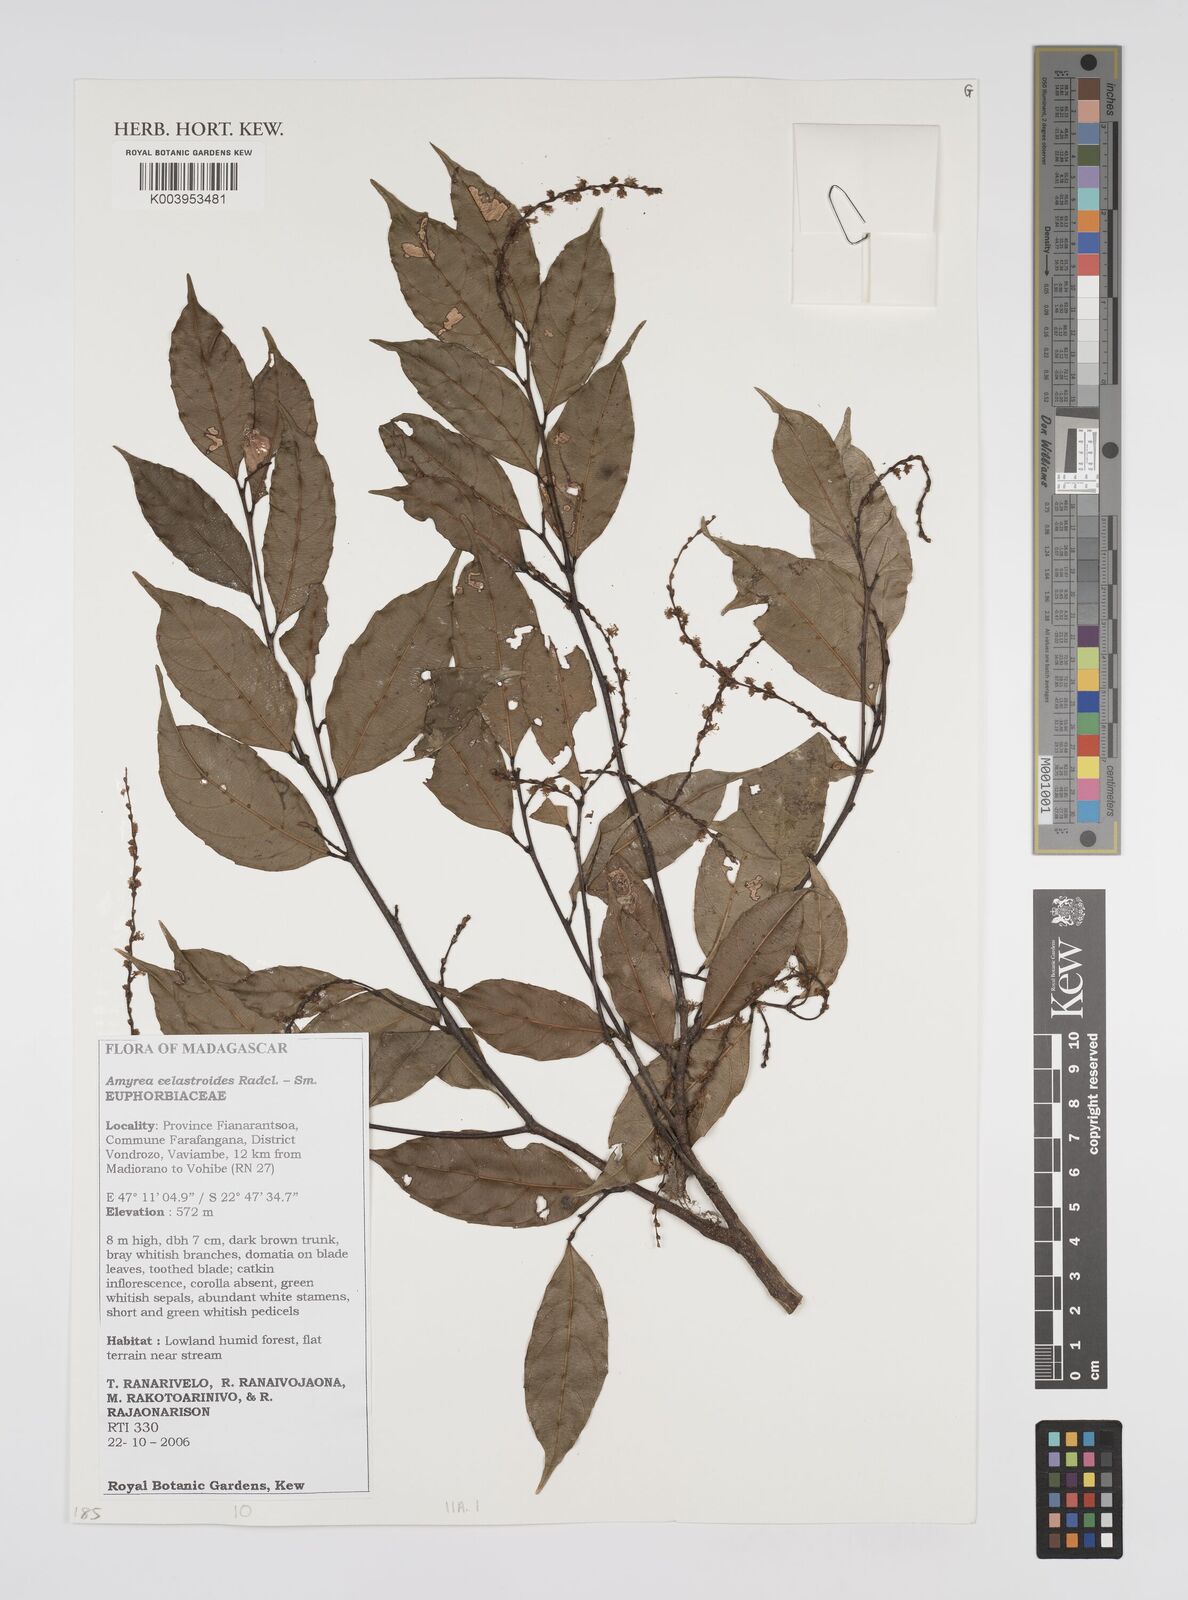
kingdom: Plantae
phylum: Tracheophyta
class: Magnoliopsida
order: Malpighiales
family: Euphorbiaceae
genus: Amyrea
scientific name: Amyrea celastroides
